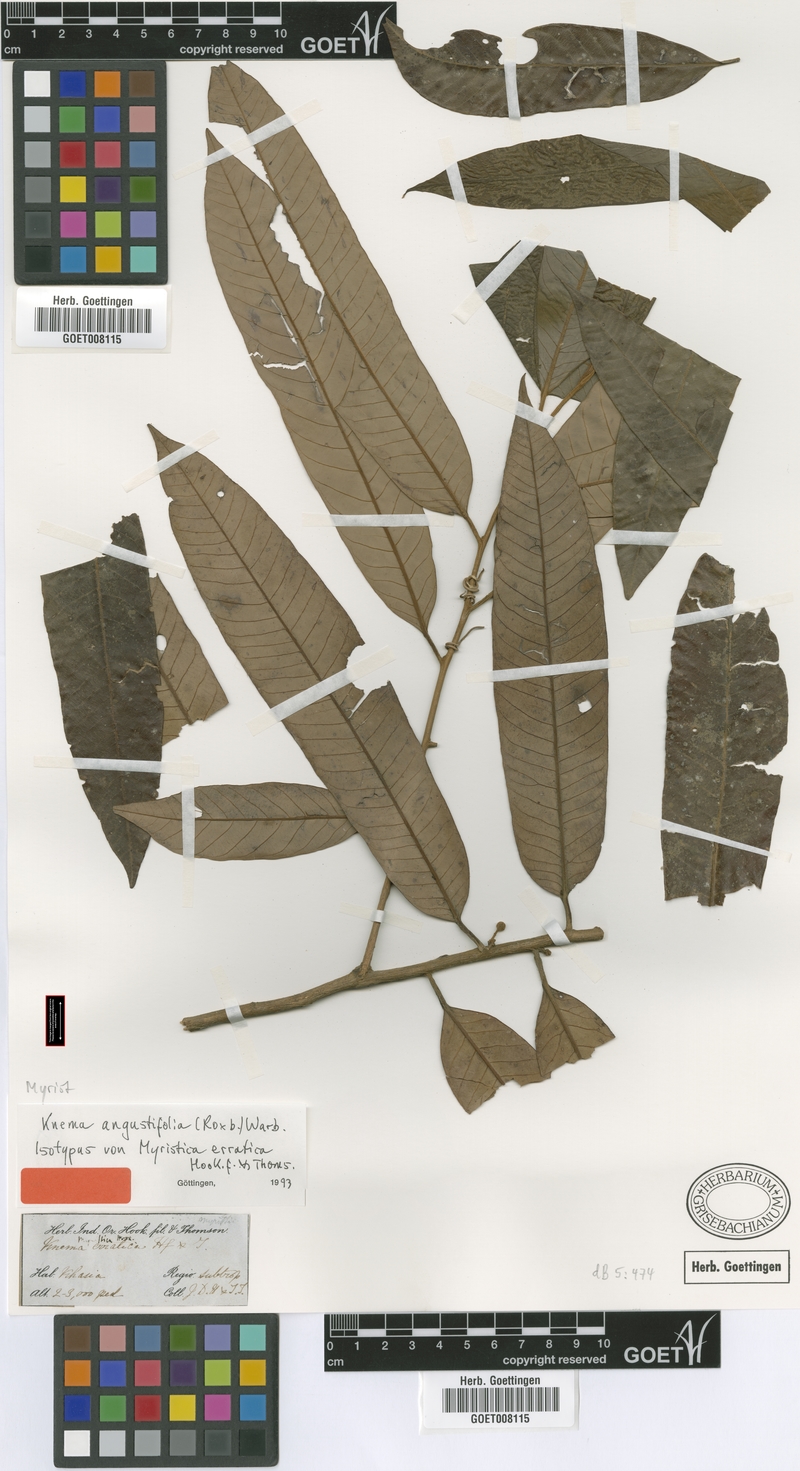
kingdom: Plantae
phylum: Tracheophyta
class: Magnoliopsida
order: Magnoliales
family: Myristicaceae
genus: Knema
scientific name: Knema angustifolia
